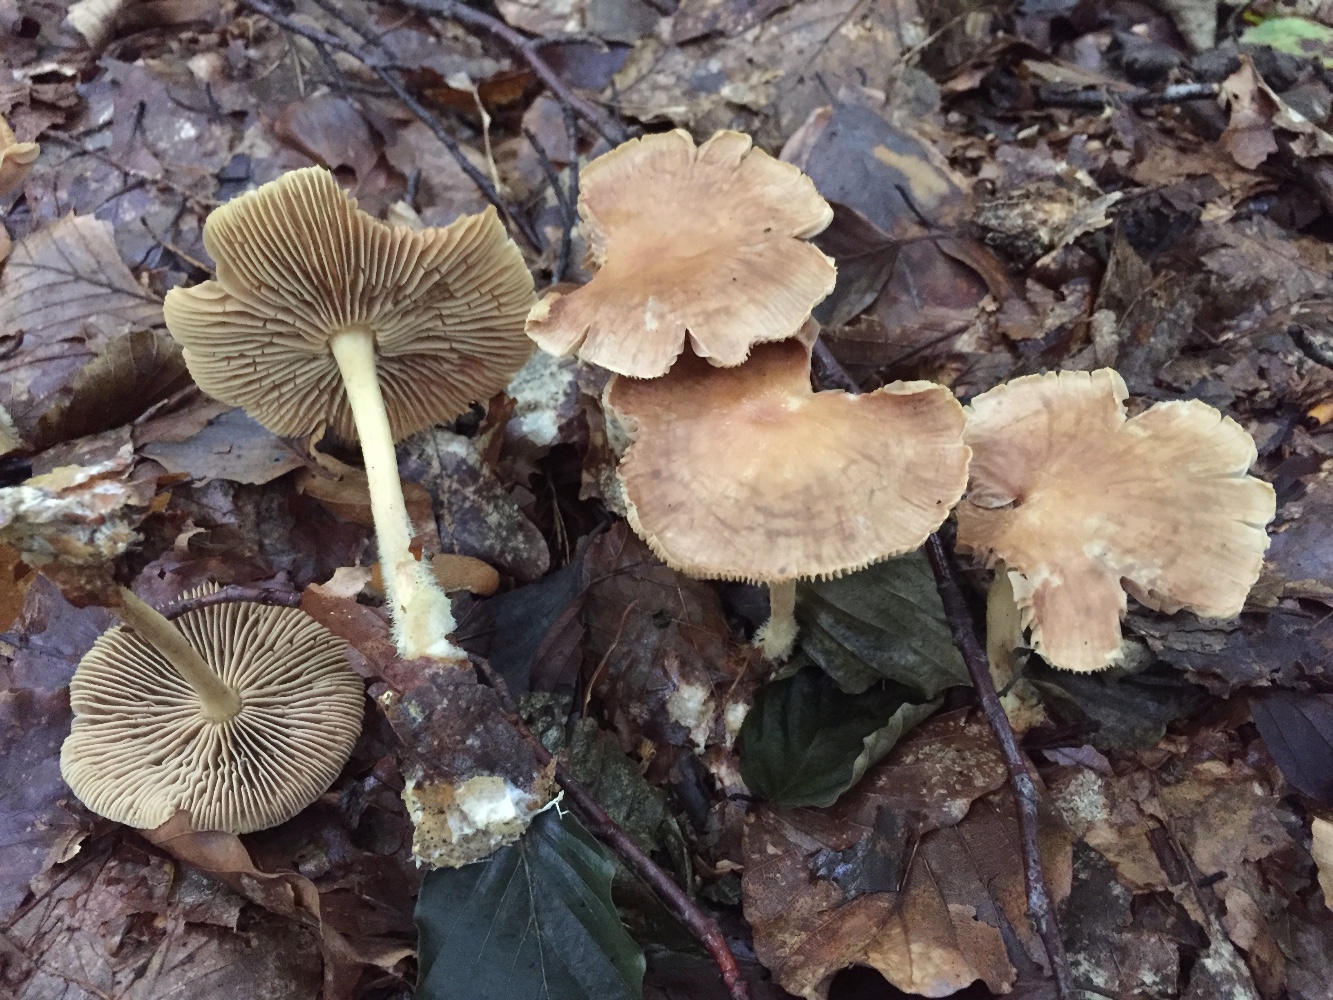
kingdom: Fungi
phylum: Basidiomycota
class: Agaricomycetes
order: Agaricales
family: Omphalotaceae
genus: Collybiopsis
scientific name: Collybiopsis peronata
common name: bestøvlet fladhat
